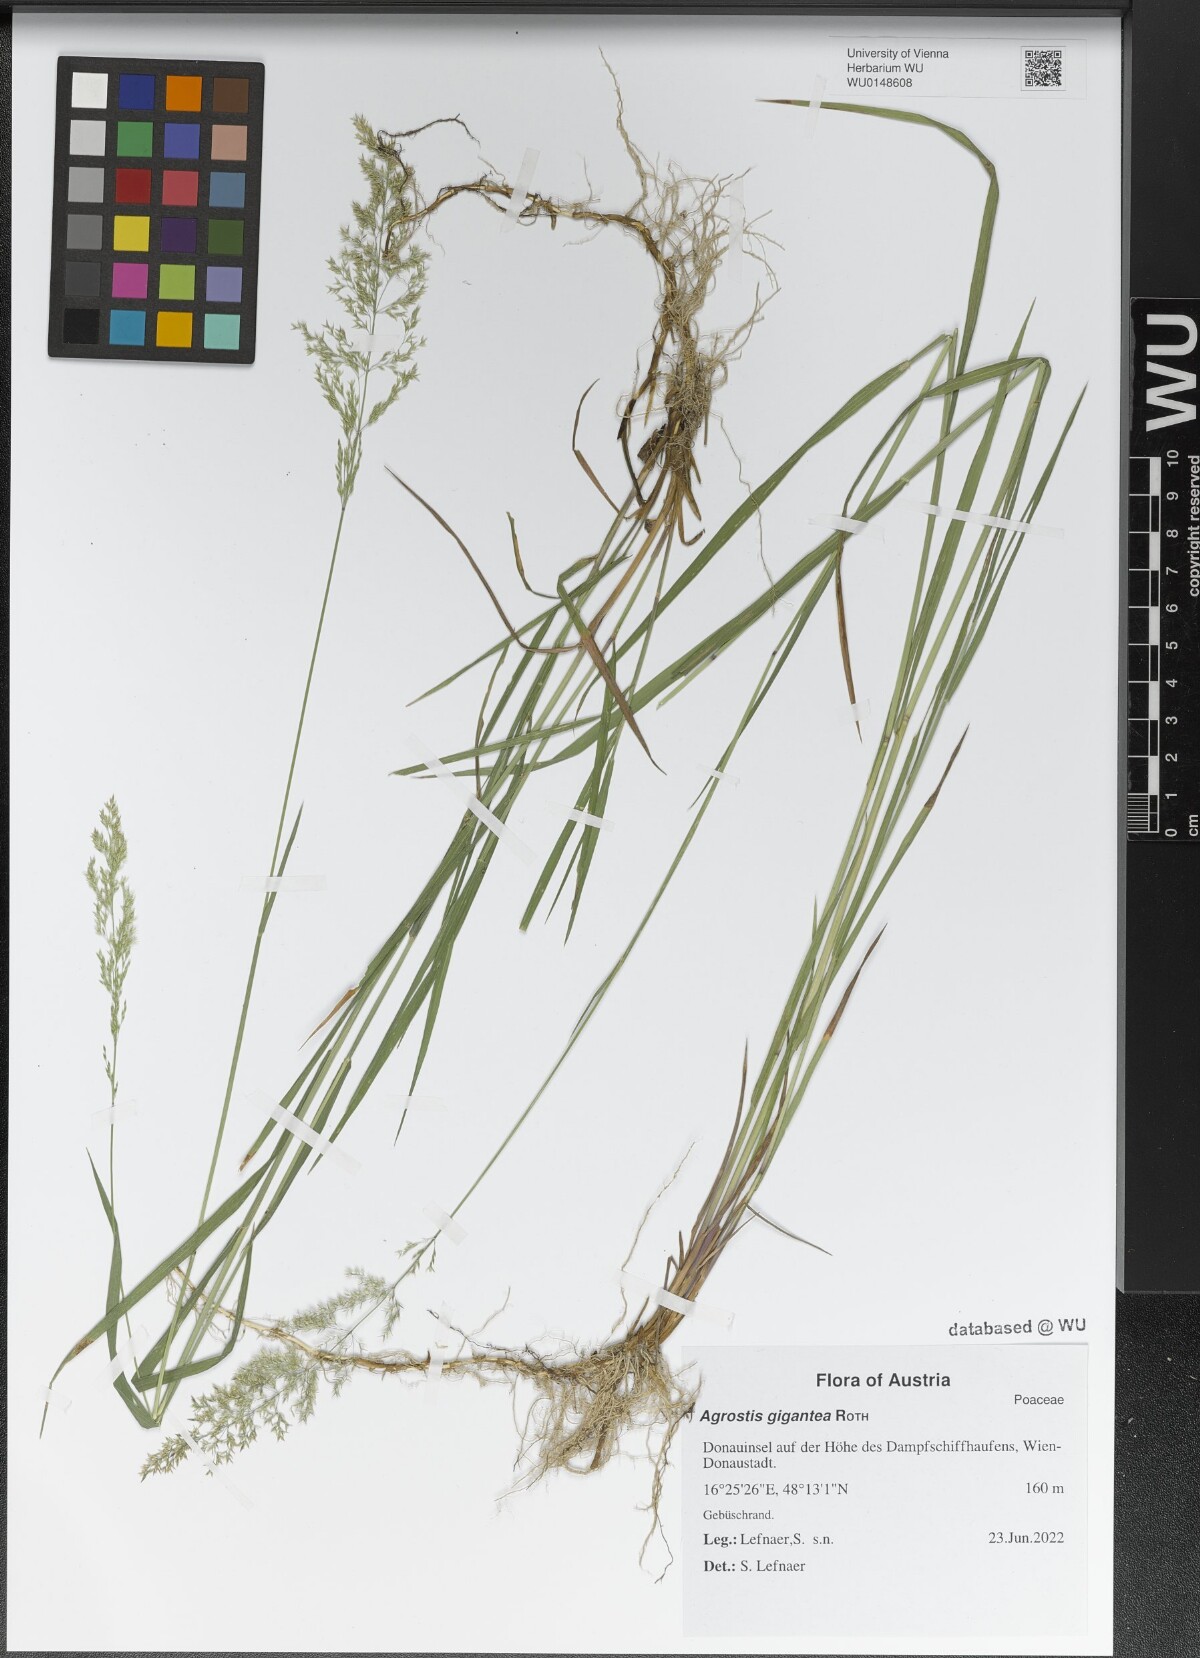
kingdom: Plantae
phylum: Tracheophyta
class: Liliopsida
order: Poales
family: Poaceae
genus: Agrostis
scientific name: Agrostis gigantea
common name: Black bent
